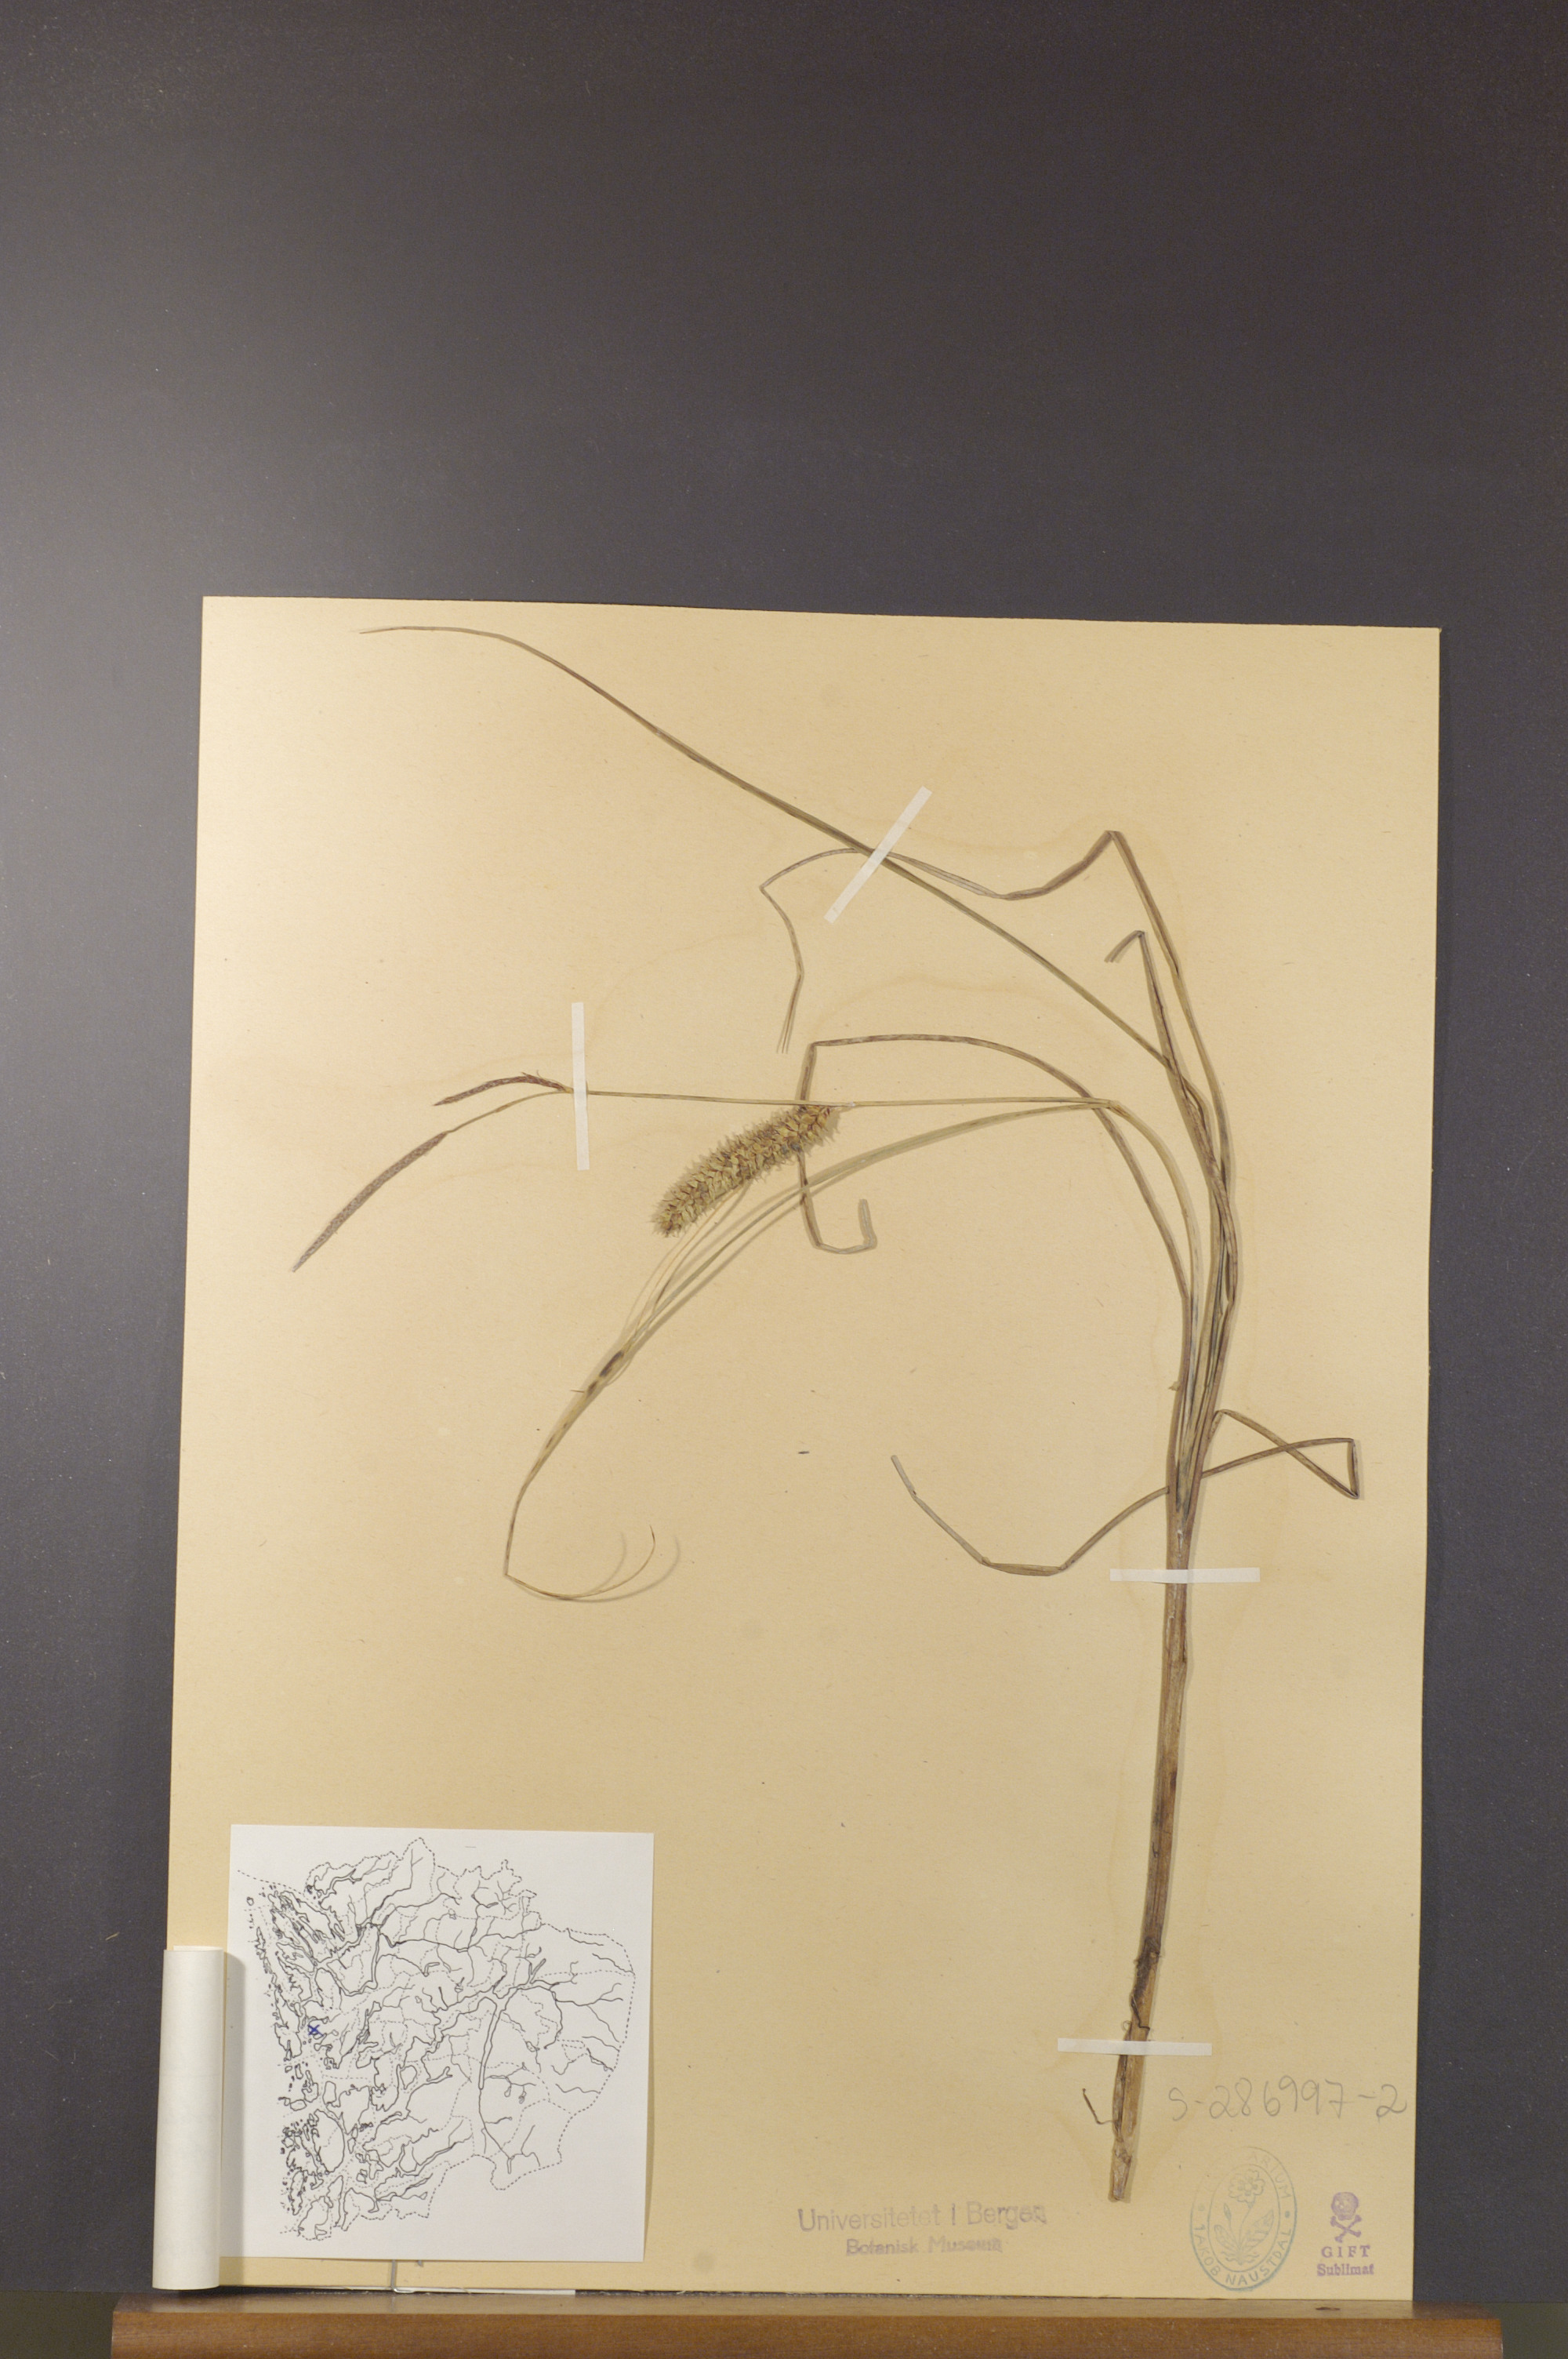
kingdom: Plantae
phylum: Tracheophyta
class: Liliopsida
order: Poales
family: Cyperaceae
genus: Carex
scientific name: Carex rostrata
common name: Bottle sedge
